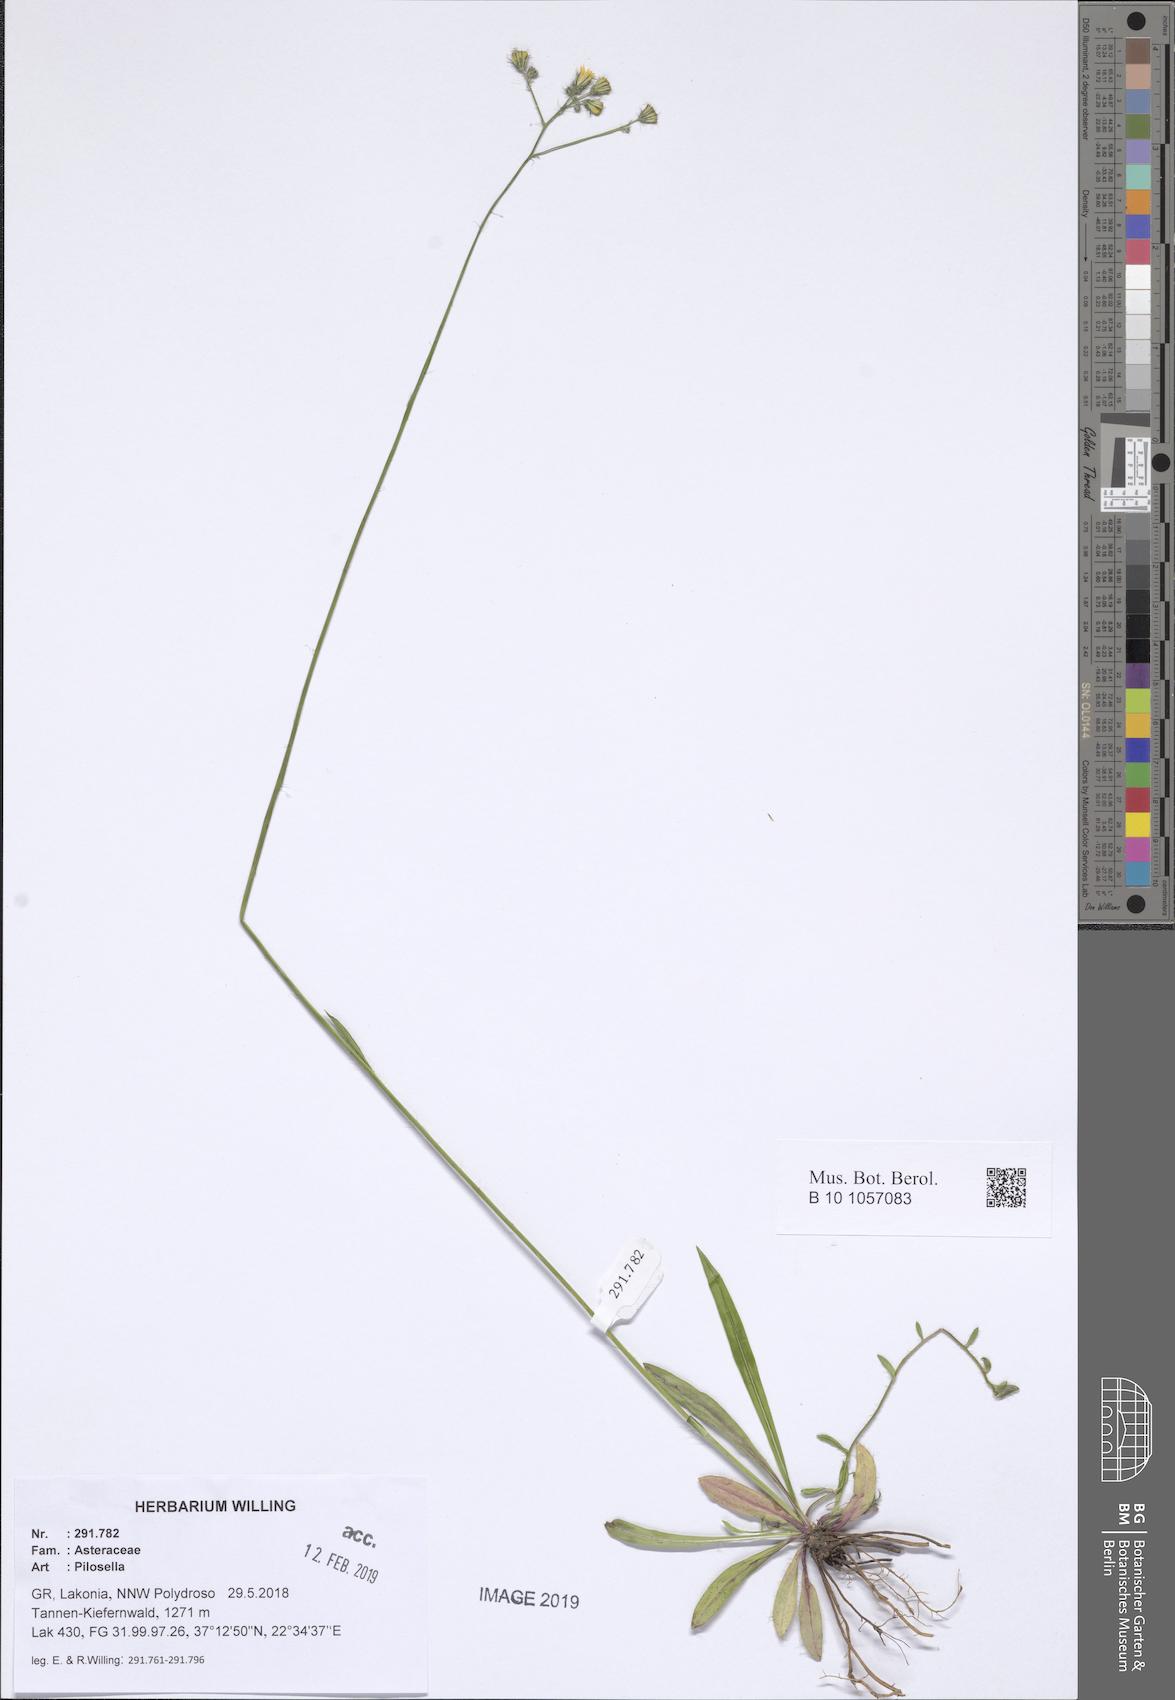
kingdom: Plantae
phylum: Tracheophyta
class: Magnoliopsida
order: Asterales
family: Asteraceae
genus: Pilosella
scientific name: Pilosella
